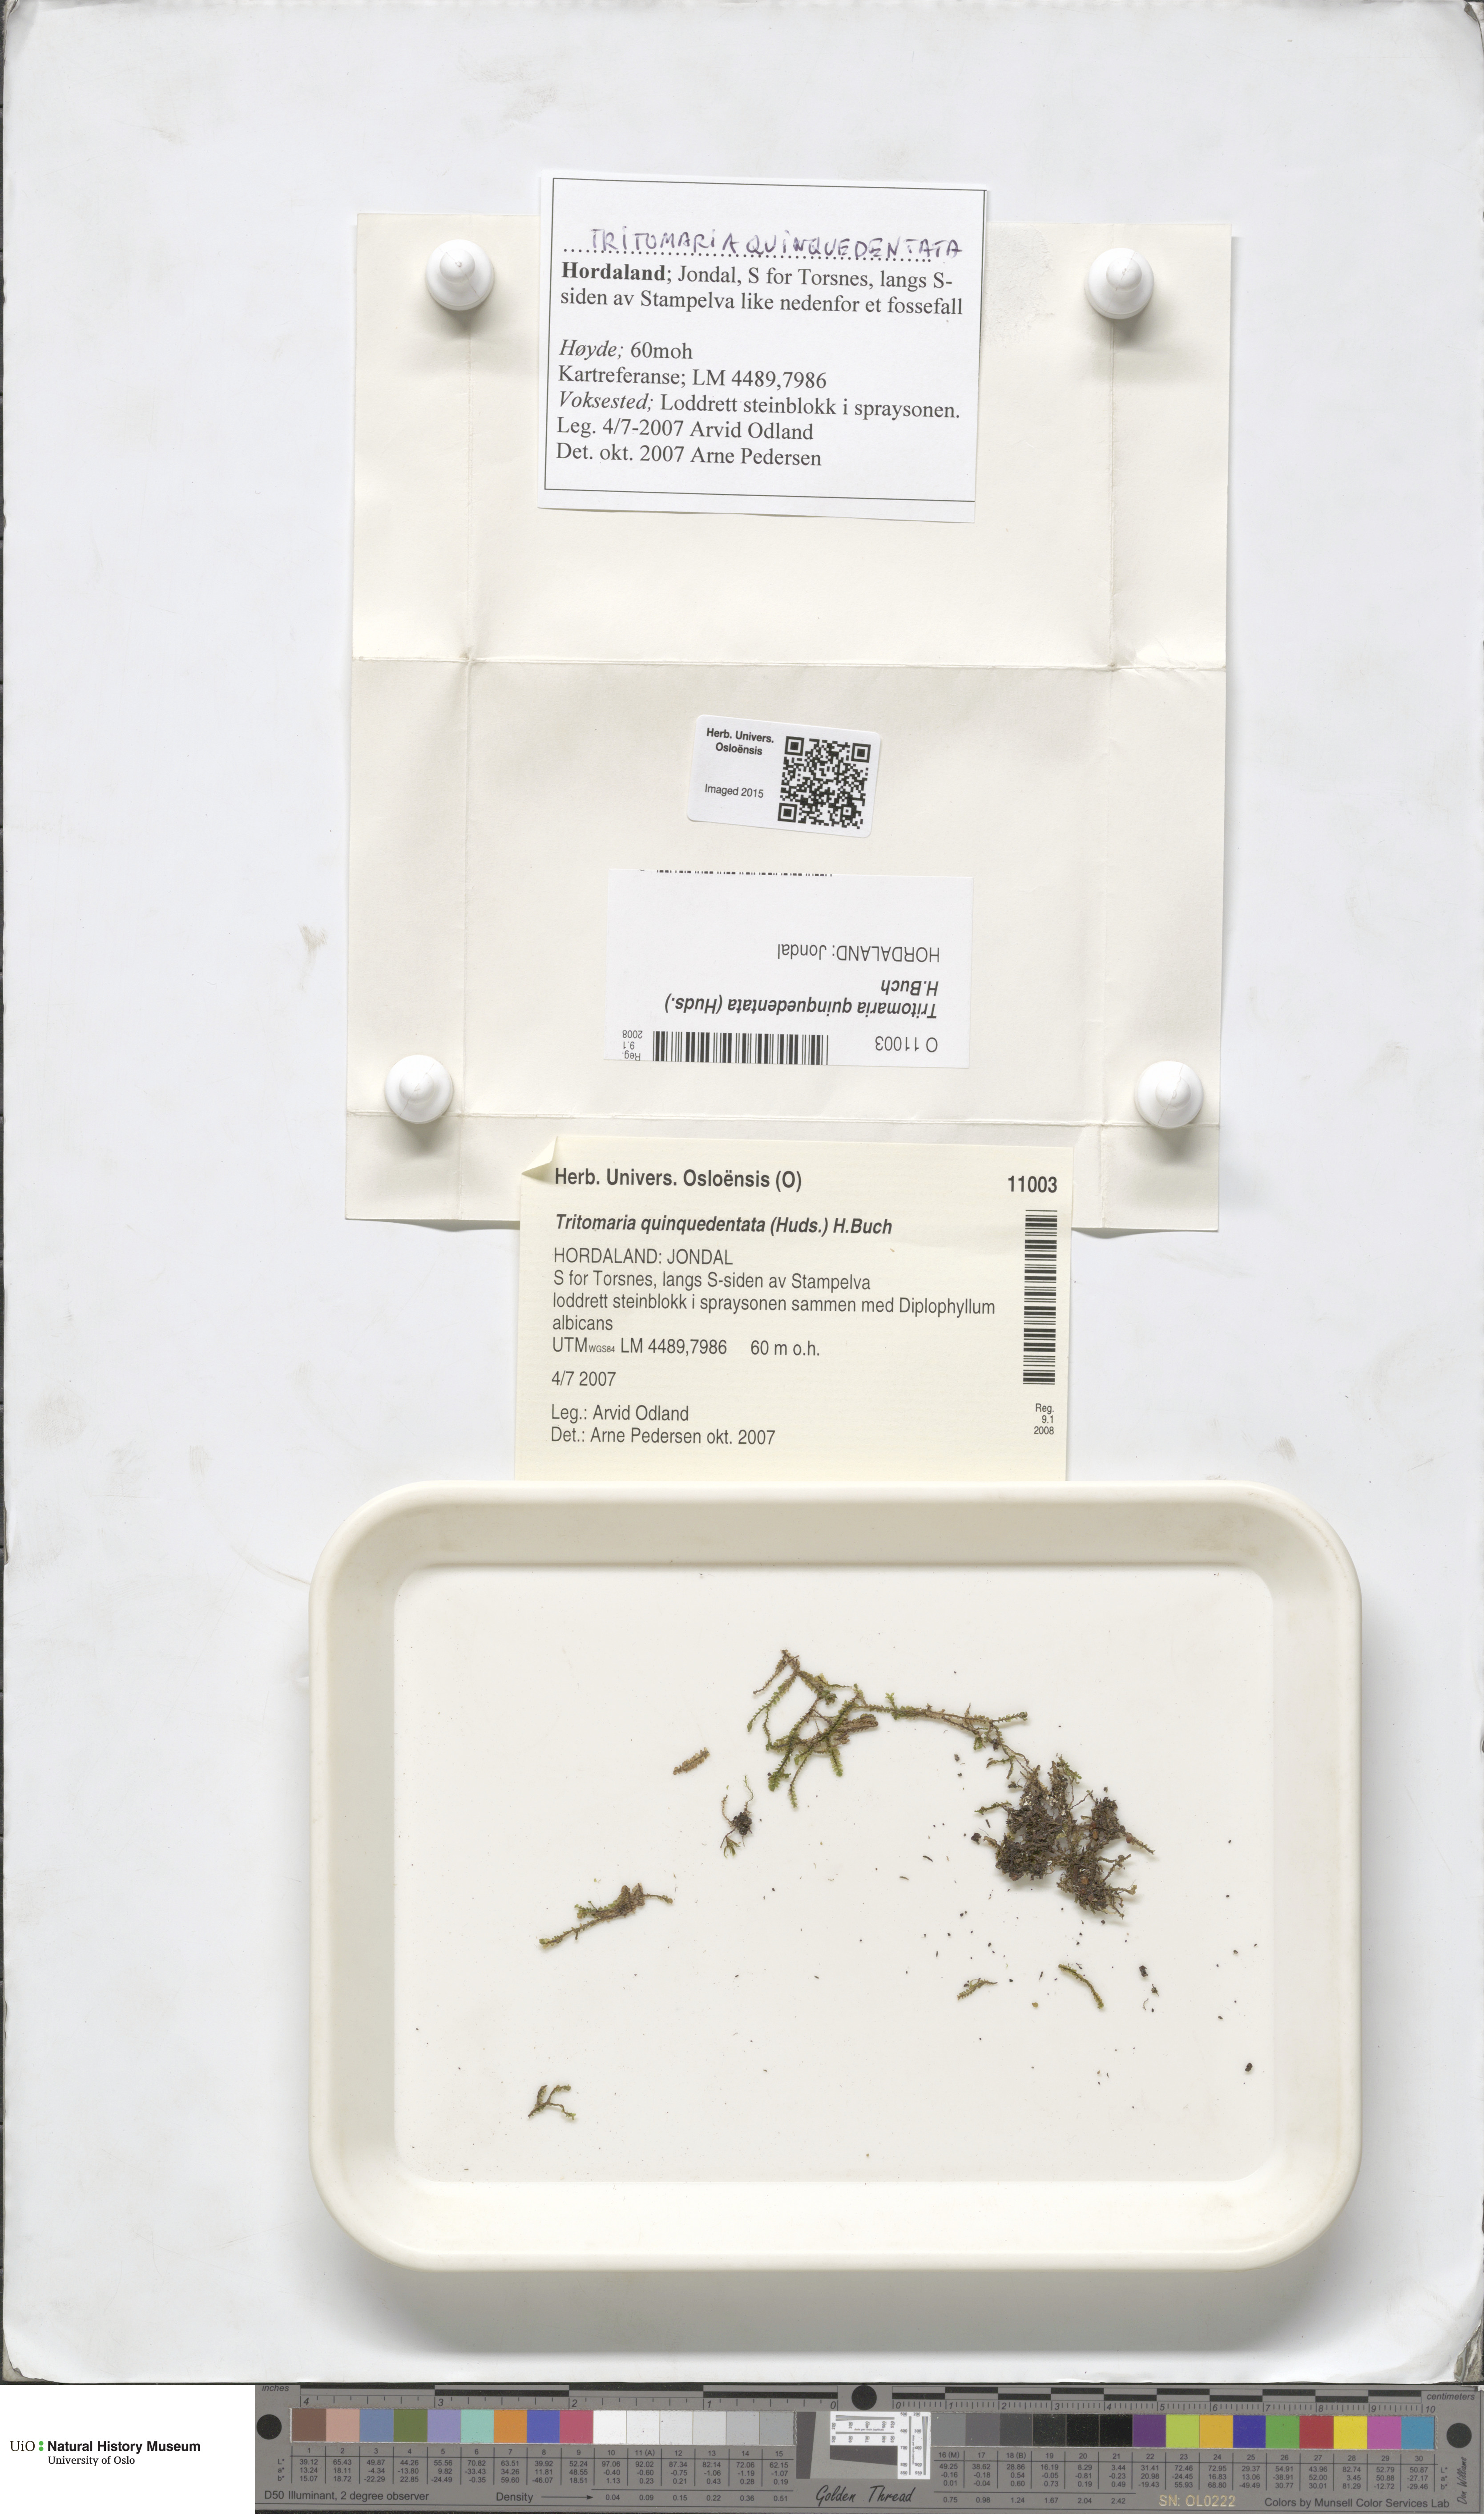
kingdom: Plantae
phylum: Marchantiophyta
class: Jungermanniopsida
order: Jungermanniales
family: Lophoziaceae
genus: Trilophozia
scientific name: Trilophozia quinquedentata
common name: Large notchwort
